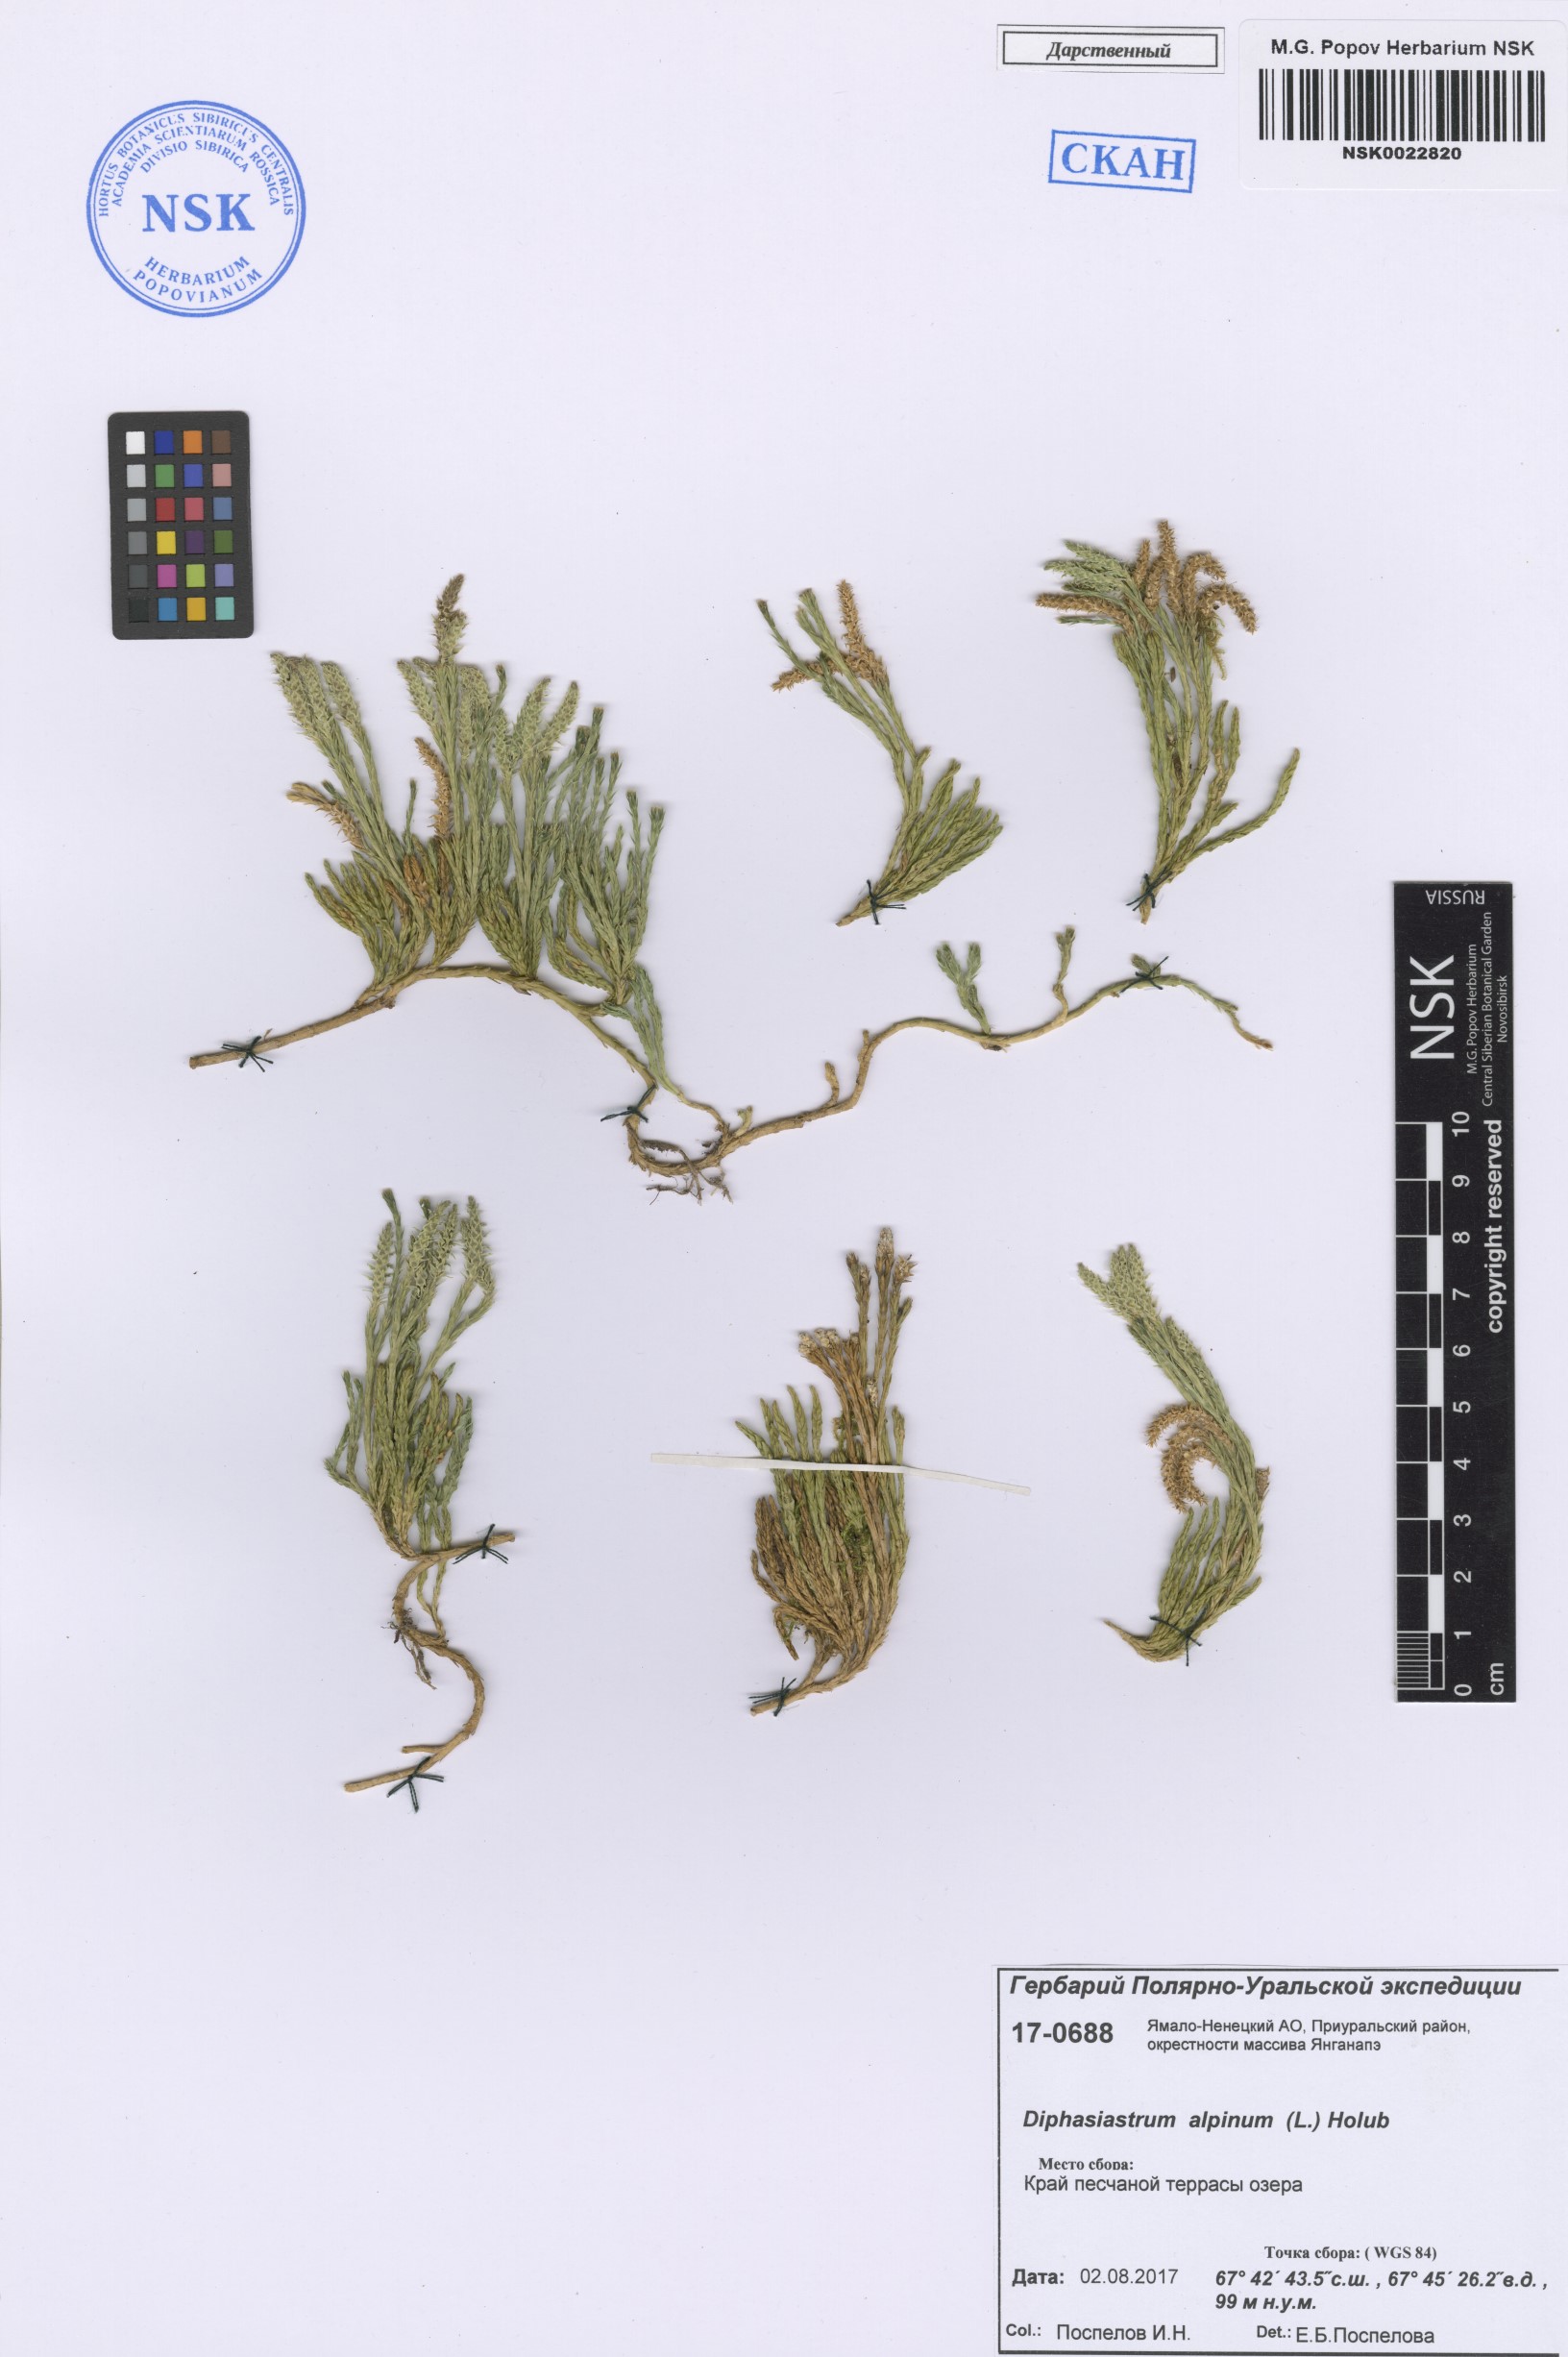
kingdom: Plantae
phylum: Tracheophyta
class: Lycopodiopsida
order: Lycopodiales
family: Lycopodiaceae
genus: Diphasiastrum
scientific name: Diphasiastrum alpinum
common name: Alpine clubmoss
